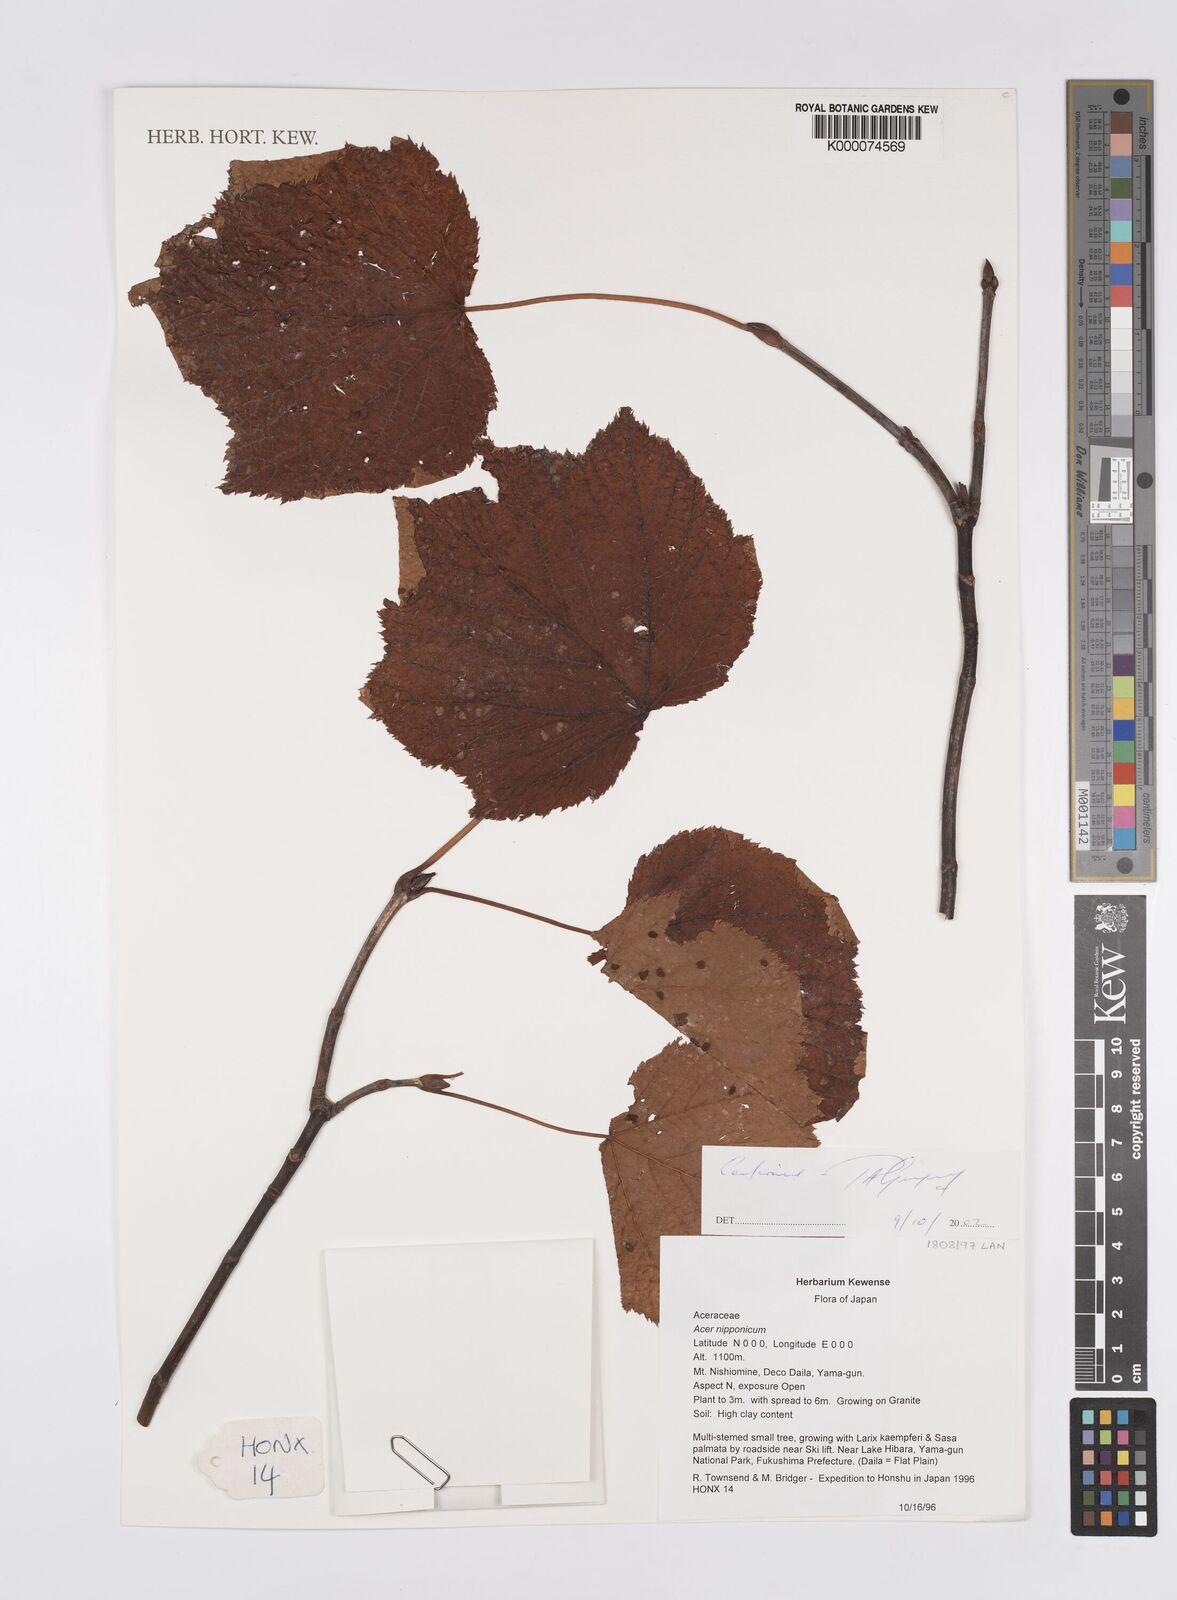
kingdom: Plantae
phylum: Tracheophyta
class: Magnoliopsida
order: Sapindales
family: Sapindaceae
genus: Acer
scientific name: Acer nipponicum
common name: Nippon maple
